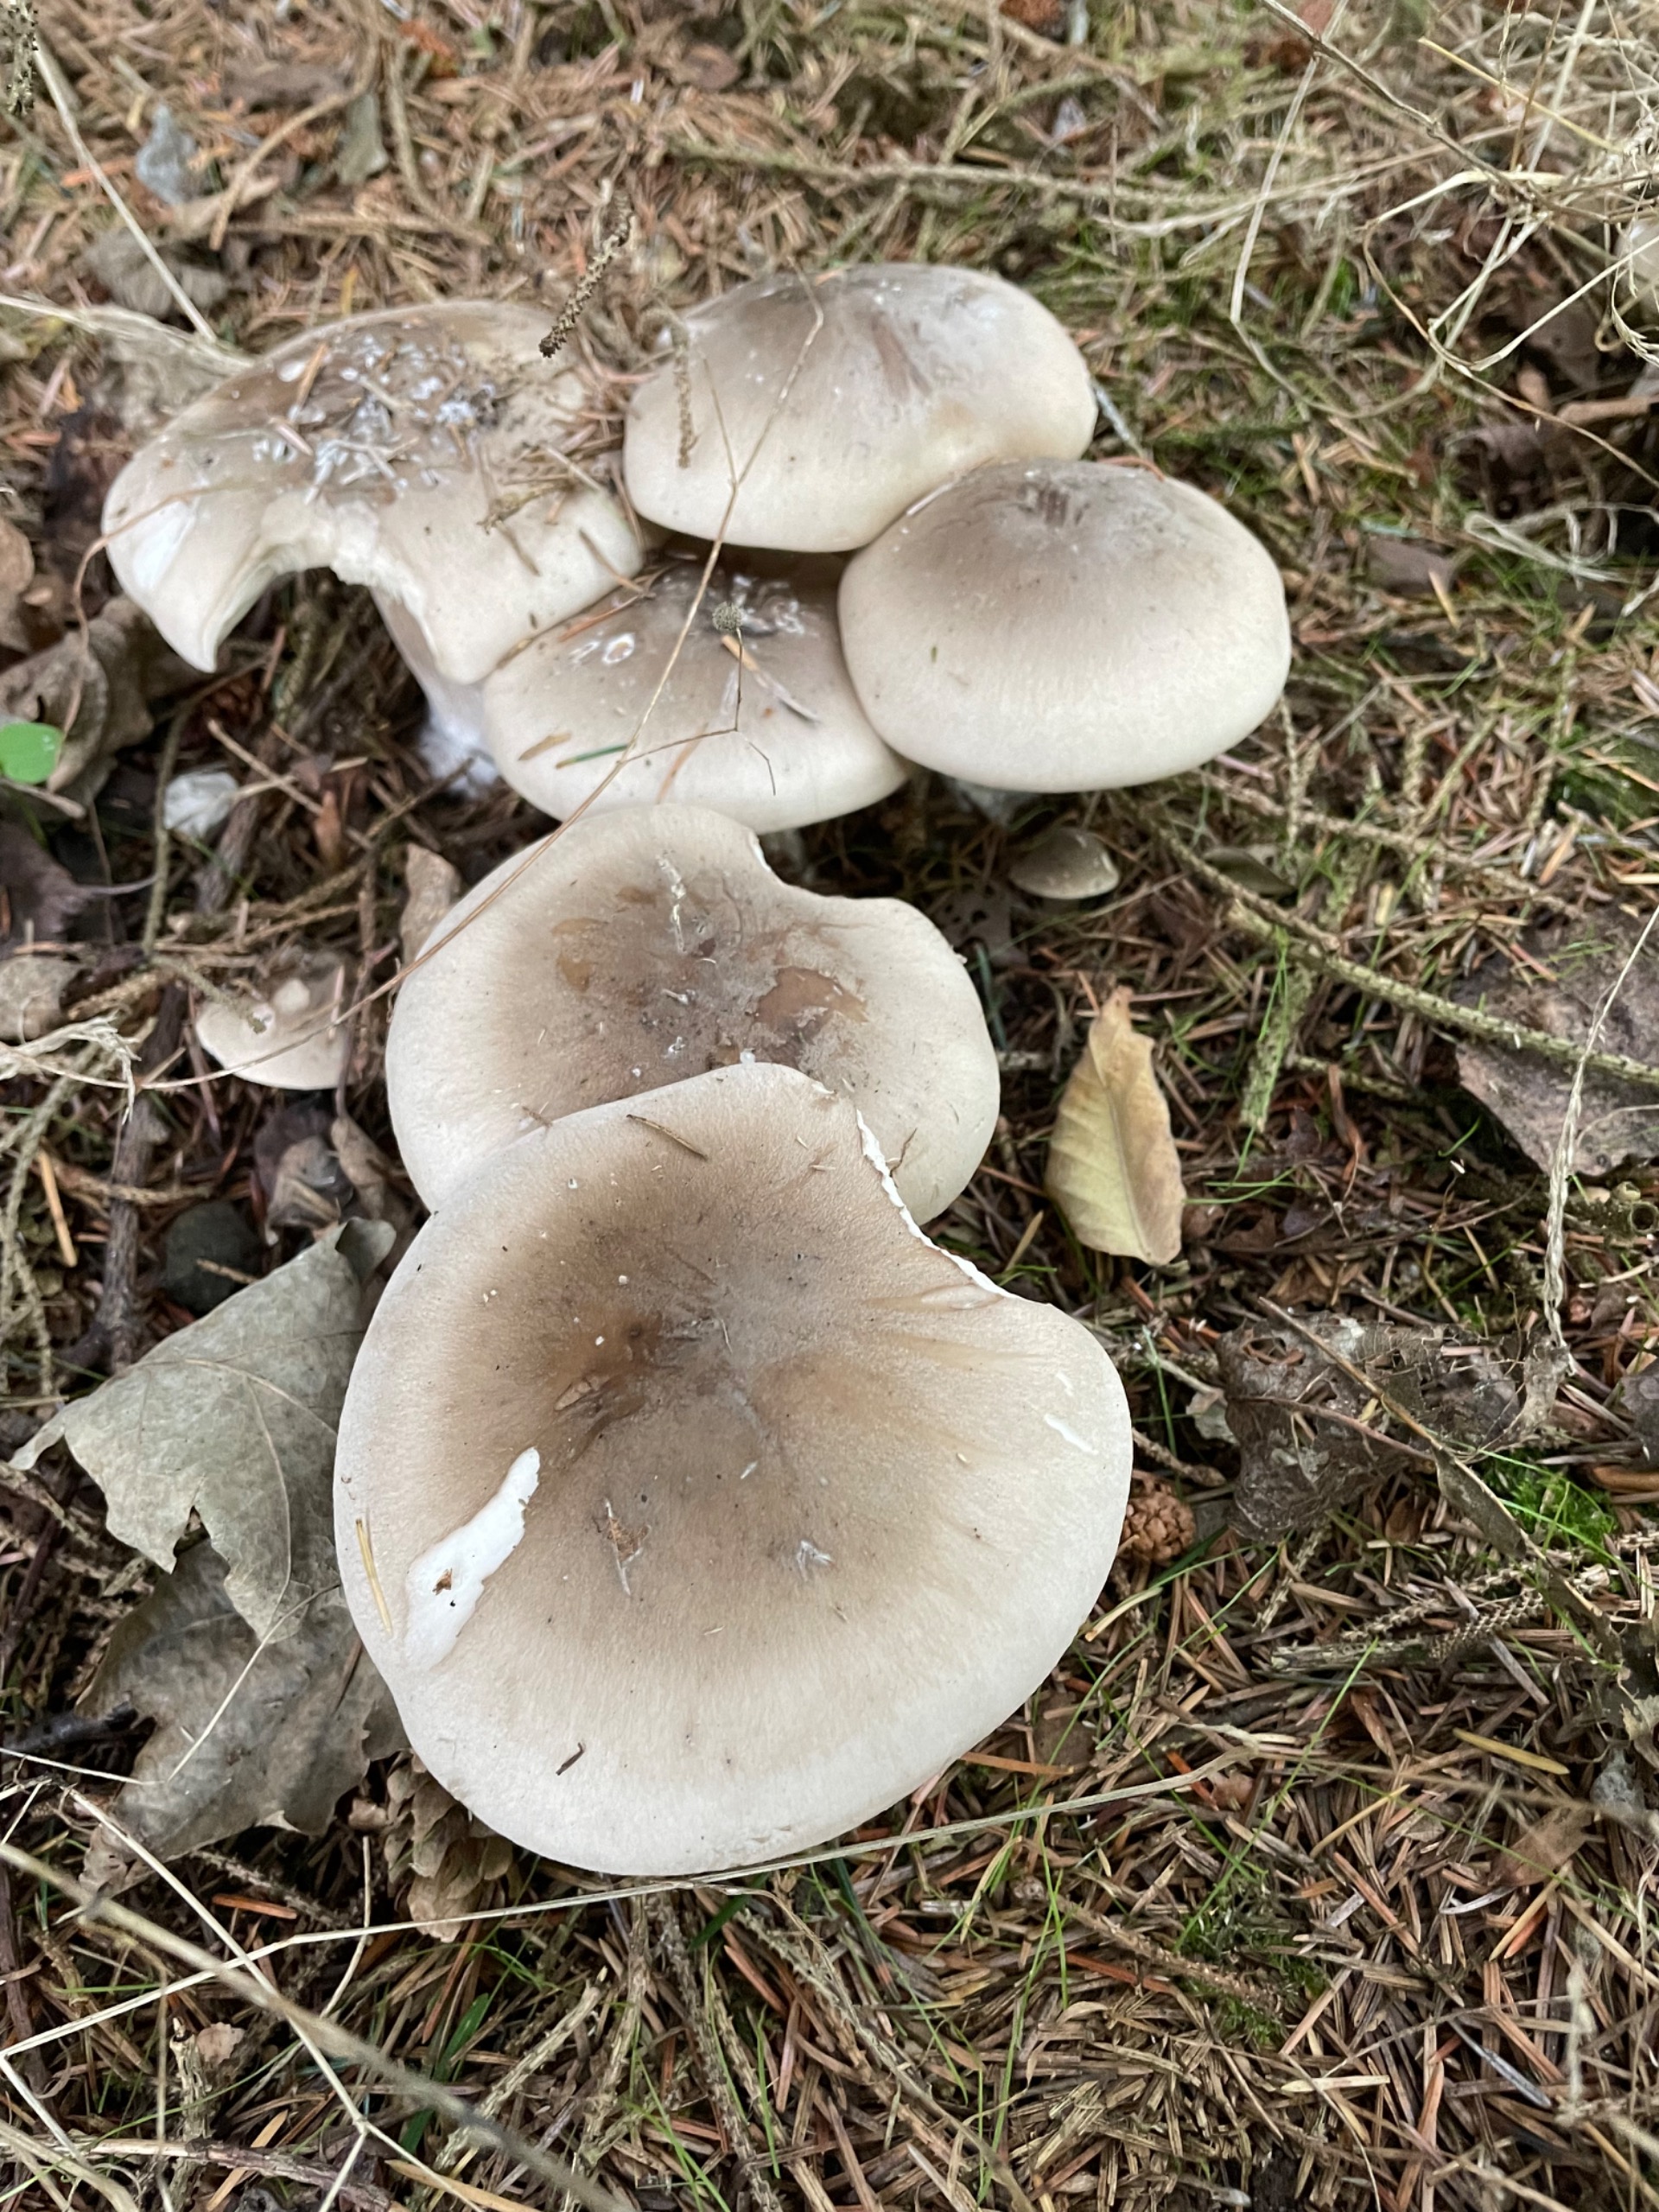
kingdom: Fungi
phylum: Basidiomycota
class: Agaricomycetes
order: Agaricales
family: Tricholomataceae
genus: Clitocybe
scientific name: Clitocybe nebularis
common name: Tåge-tragthat
